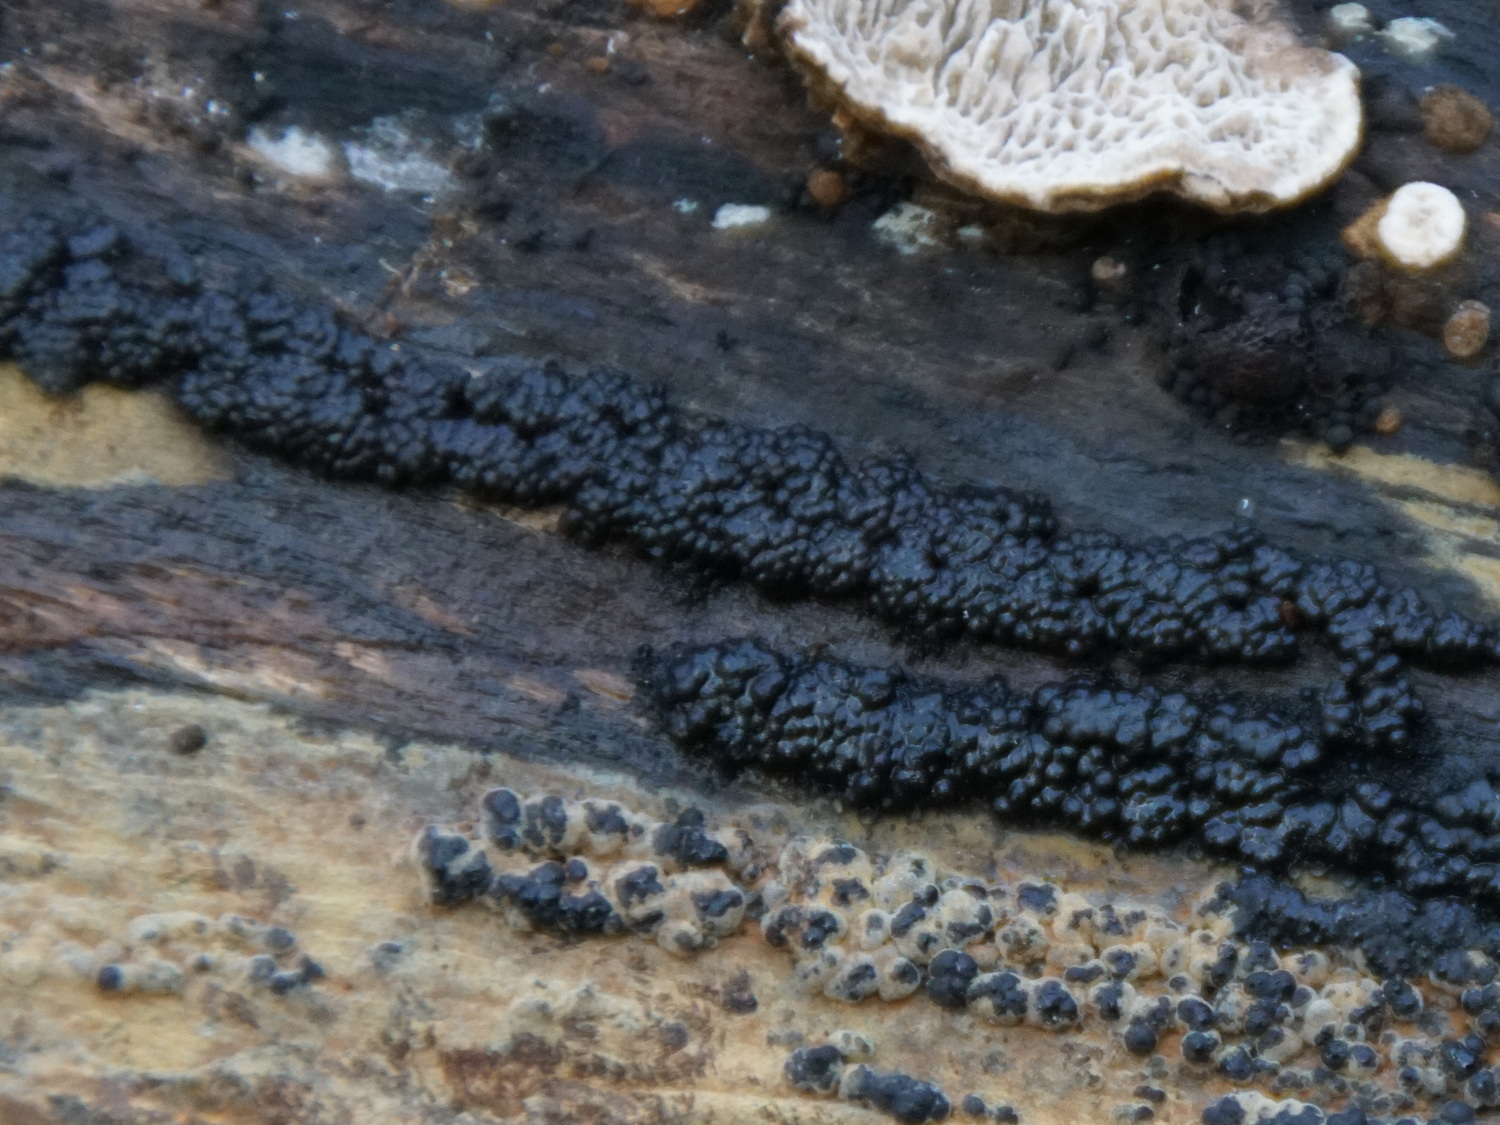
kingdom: Fungi
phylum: Ascomycota
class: Sordariomycetes
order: Xylariales
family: Hypoxylaceae
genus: Jackrogersella
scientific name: Jackrogersella cohaerens
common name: sammenflydende kulbær
